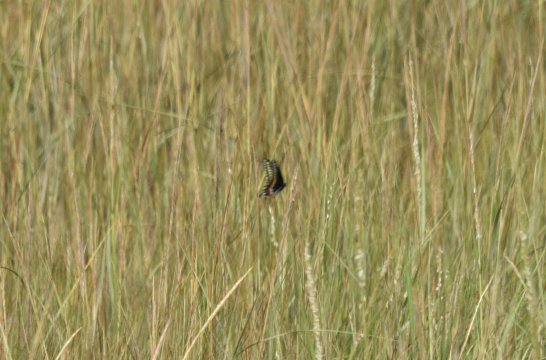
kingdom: Animalia
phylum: Arthropoda
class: Insecta
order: Lepidoptera
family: Papilionidae
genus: Papilio
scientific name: Papilio polyxenes
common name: Black Swallowtail
